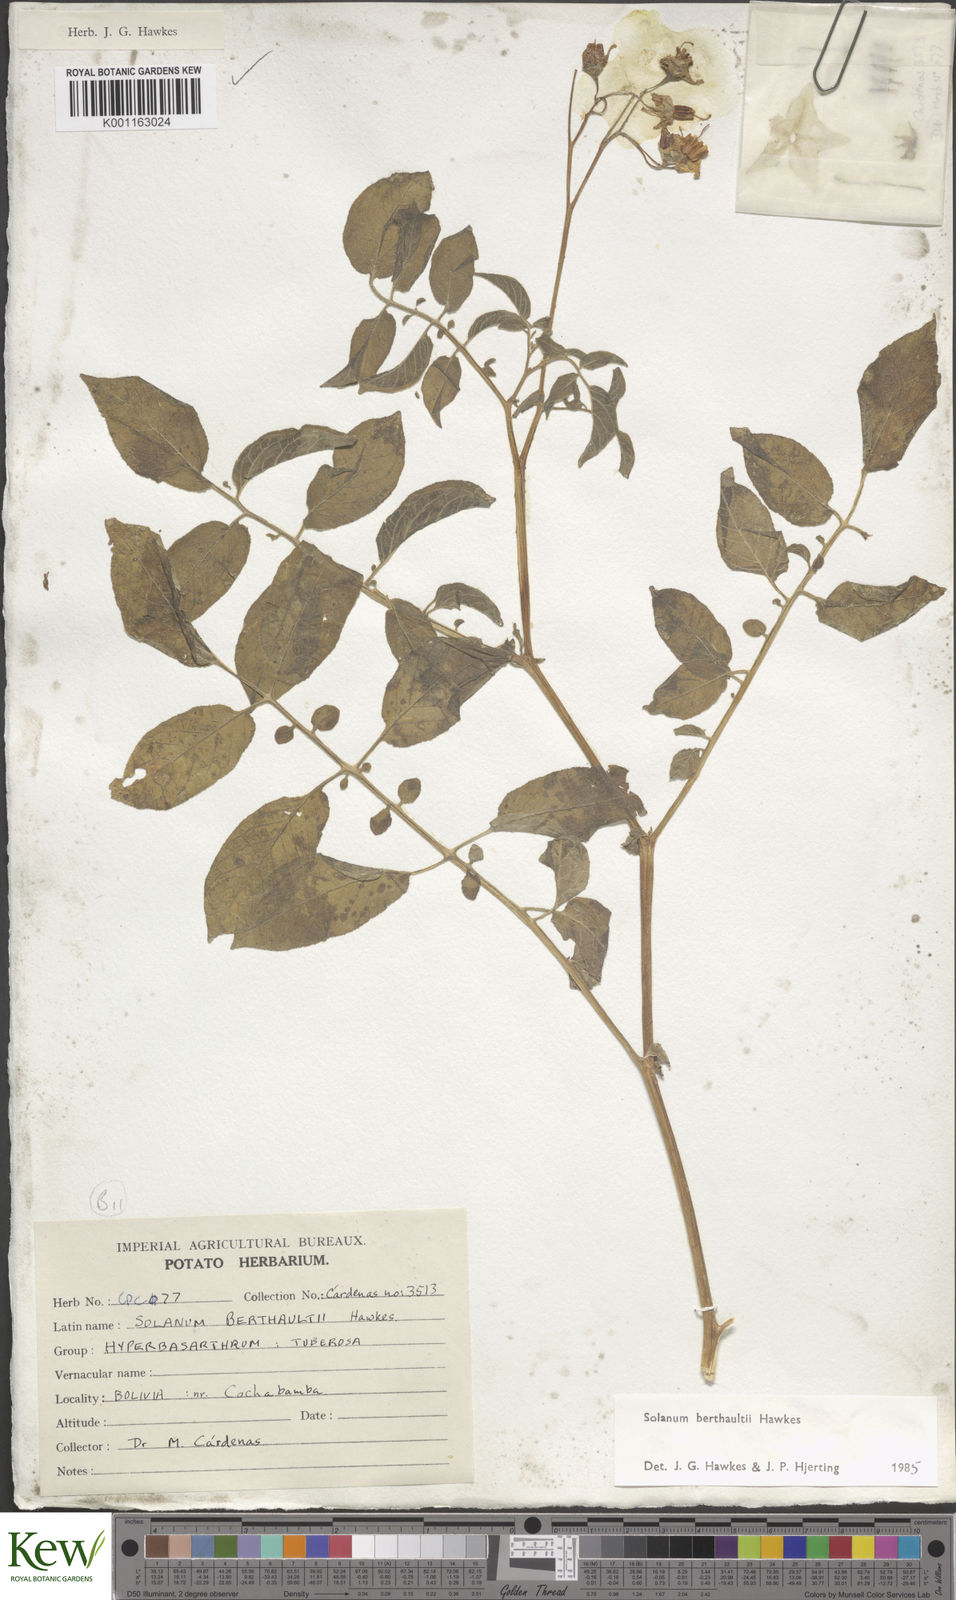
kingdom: Plantae
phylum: Tracheophyta
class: Magnoliopsida
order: Solanales
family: Solanaceae
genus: Solanum
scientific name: Solanum berthaultii
